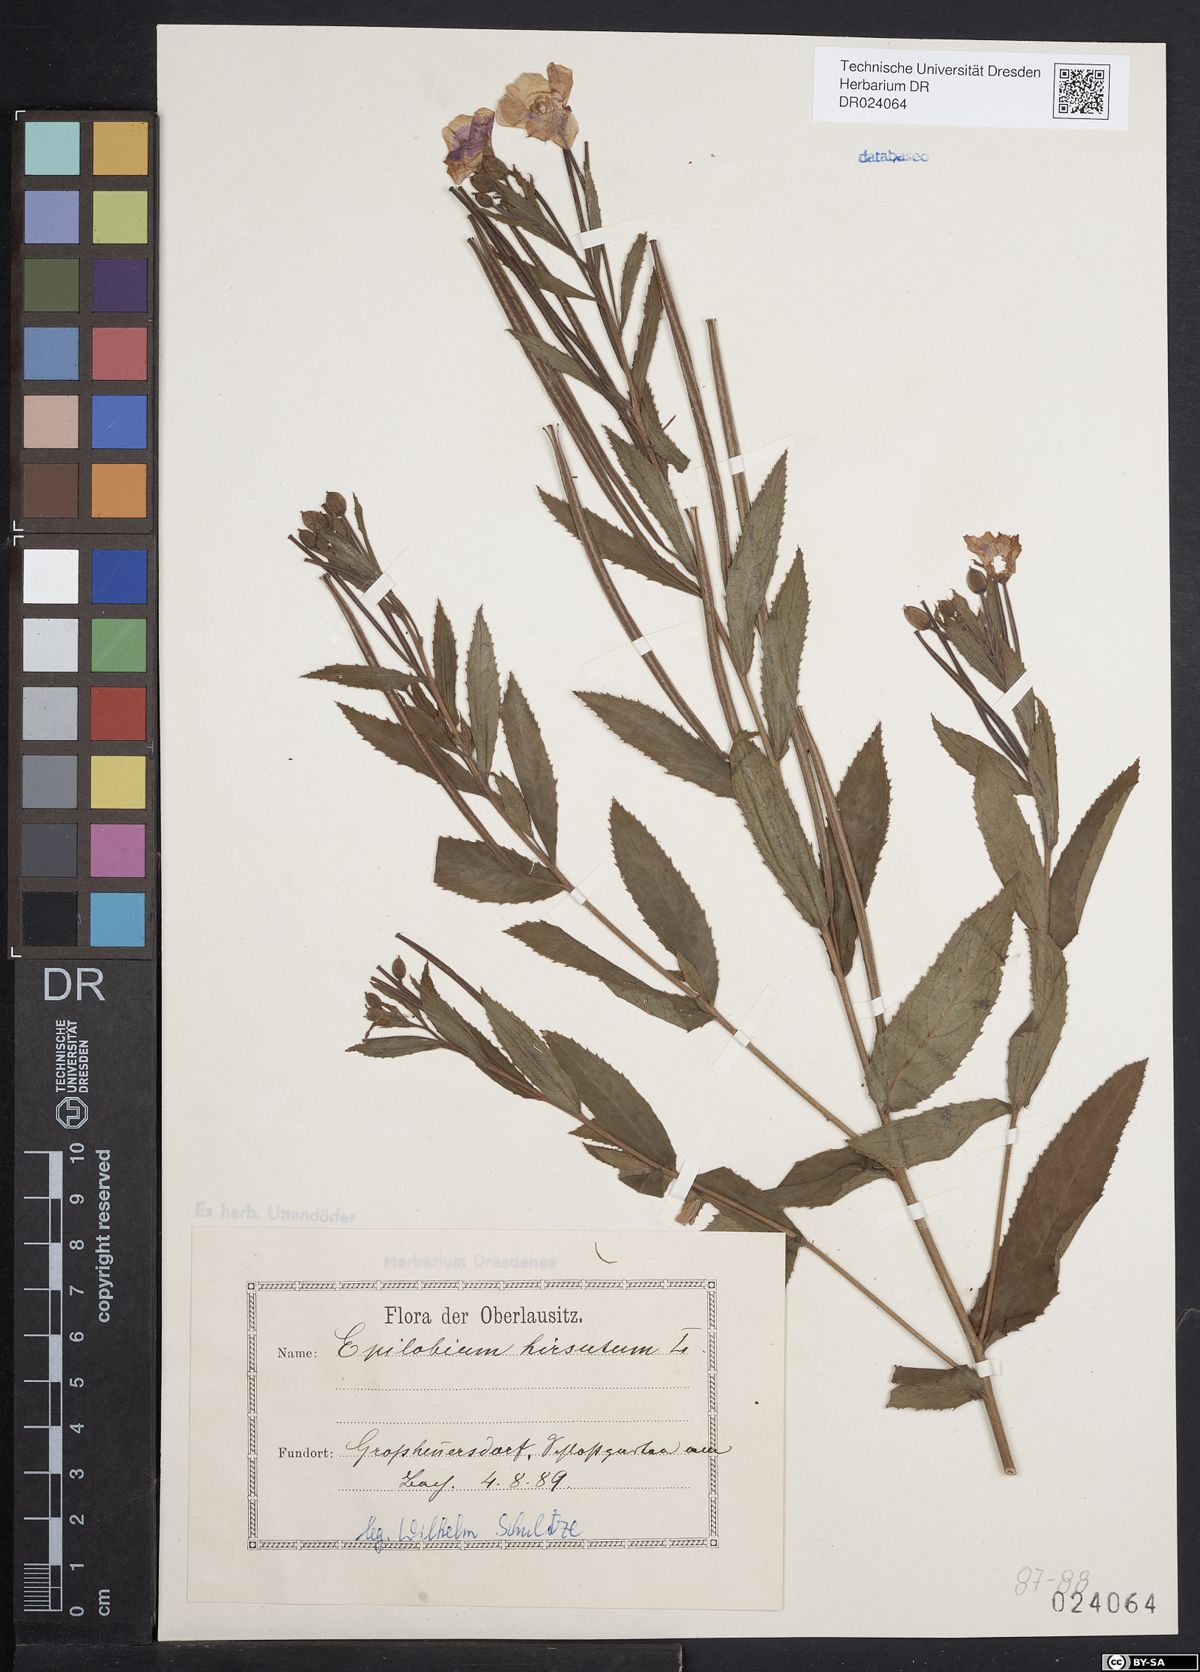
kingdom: Plantae
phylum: Tracheophyta
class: Magnoliopsida
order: Myrtales
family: Onagraceae
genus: Epilobium
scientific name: Epilobium hirsutum
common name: Great willowherb
